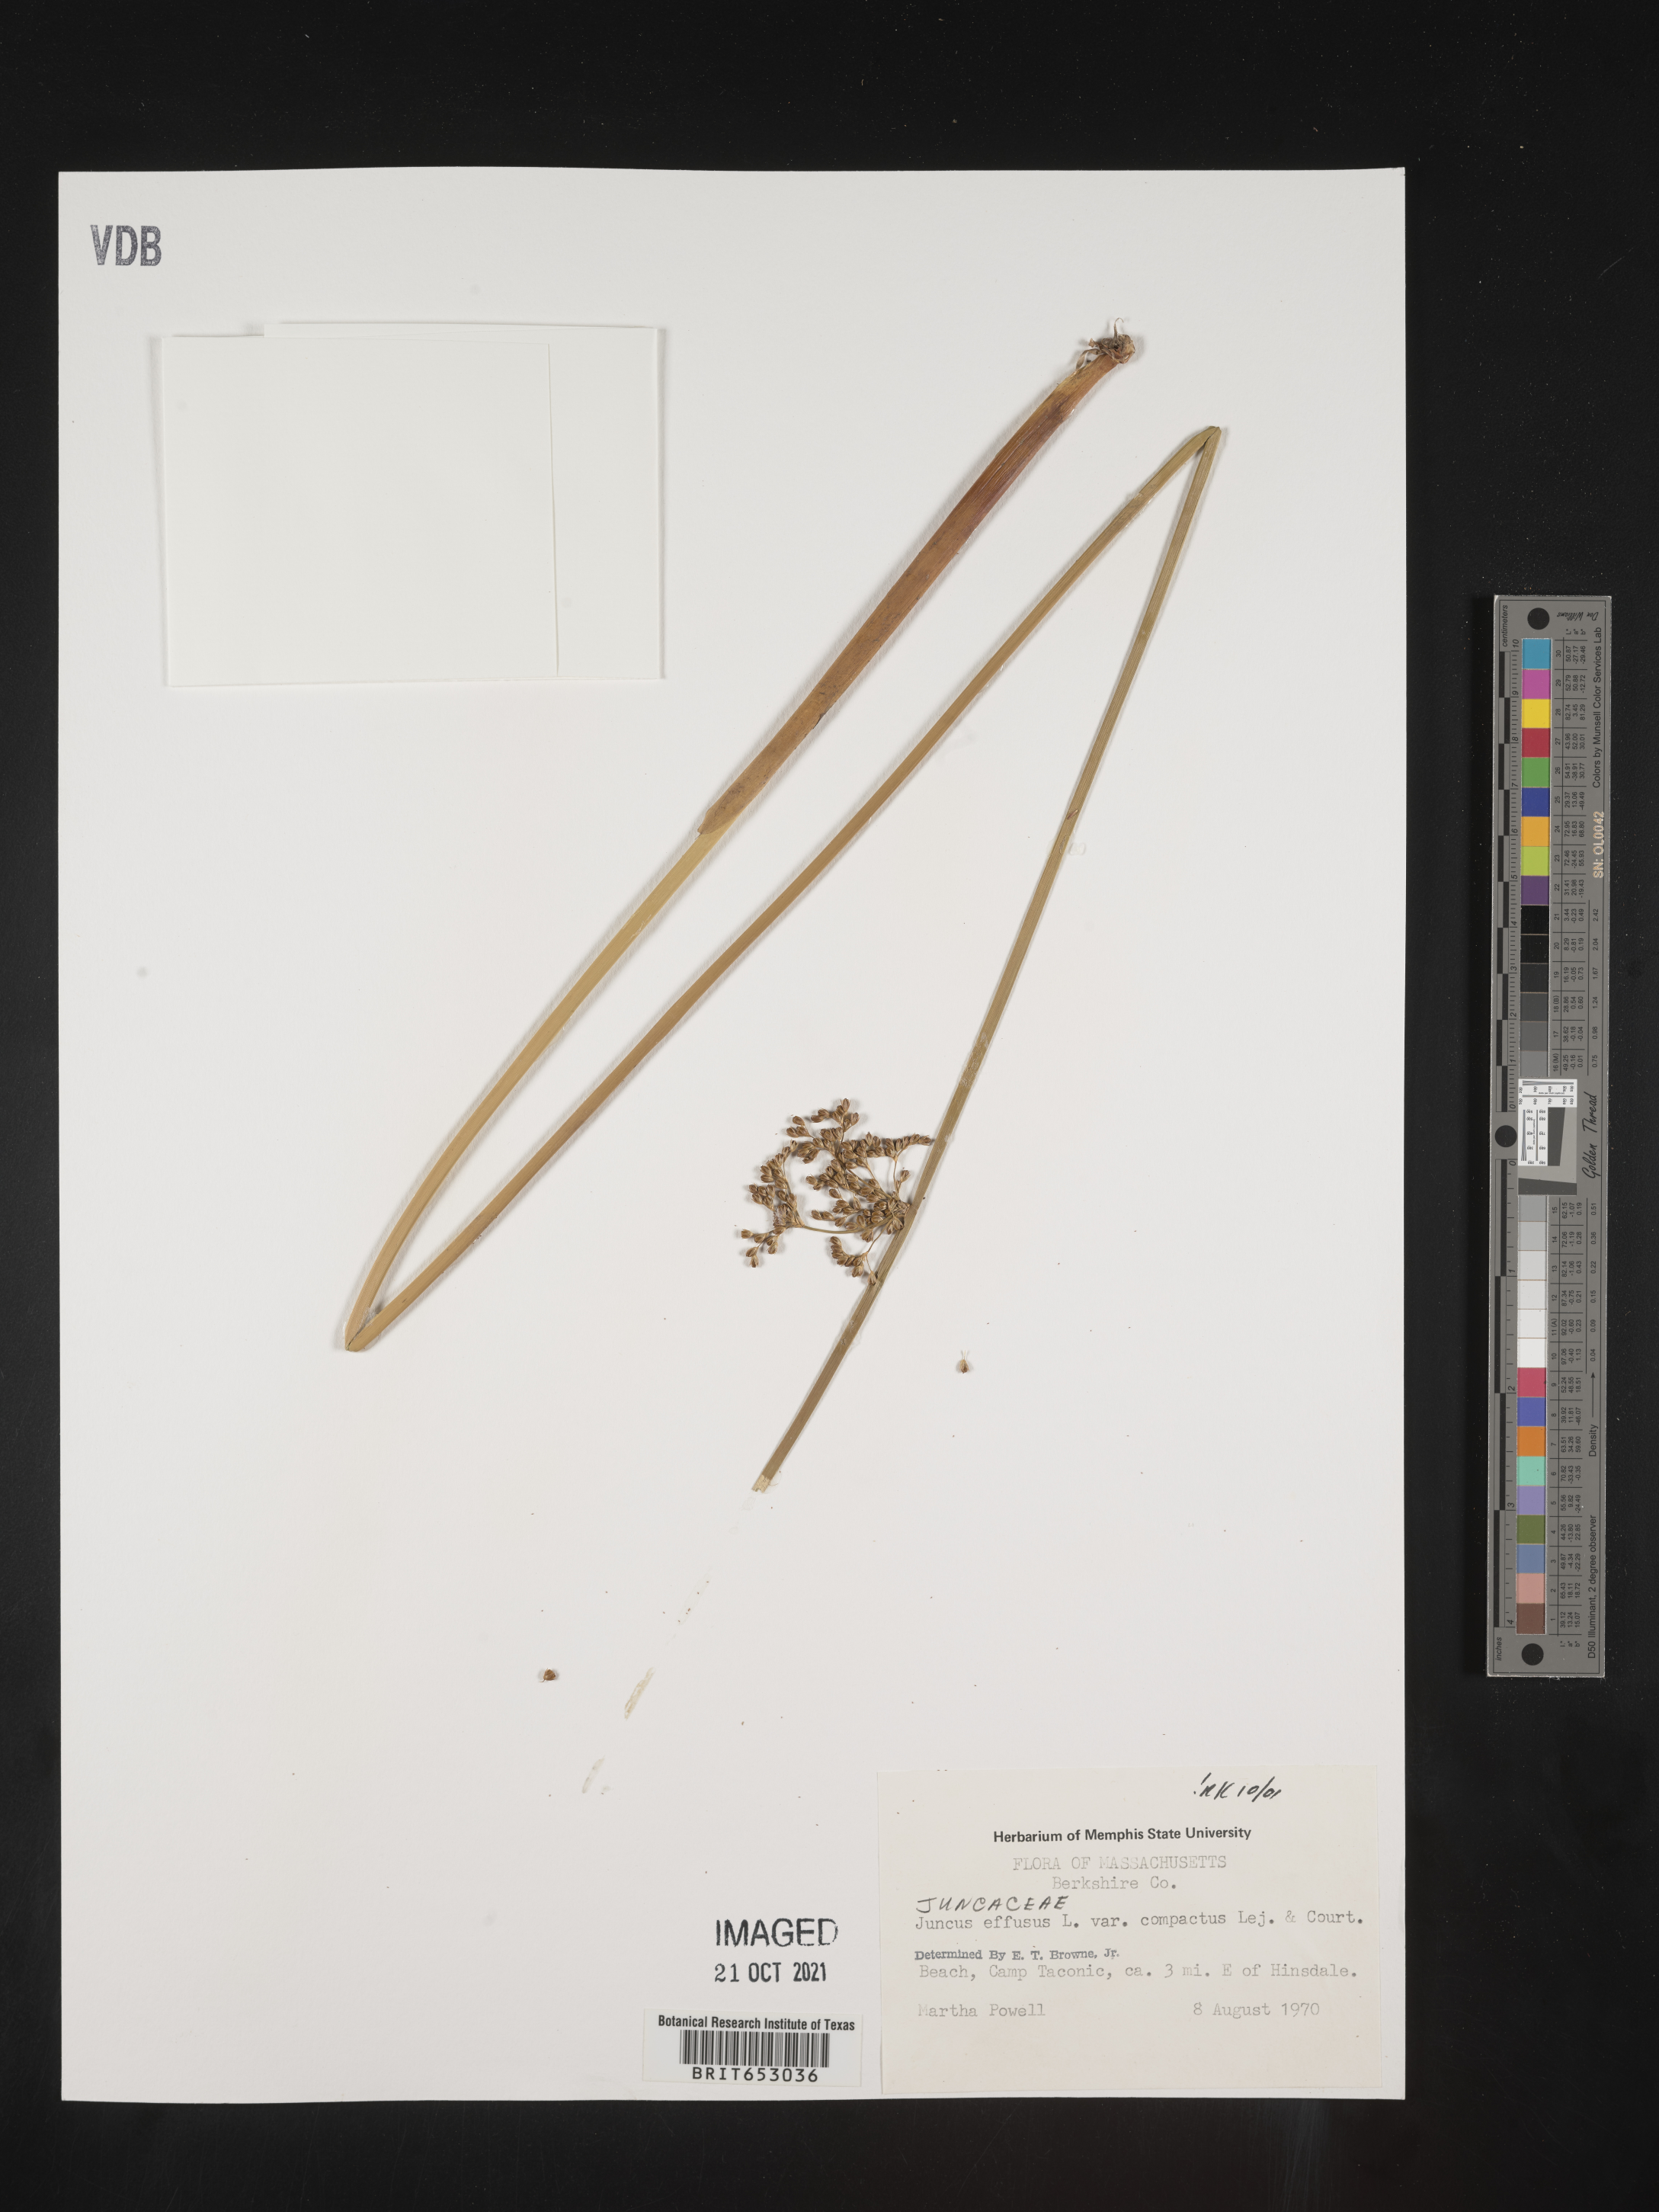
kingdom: Plantae
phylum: Tracheophyta
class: Liliopsida
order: Poales
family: Juncaceae
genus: Juncus
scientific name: Juncus effusus
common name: Soft rush
